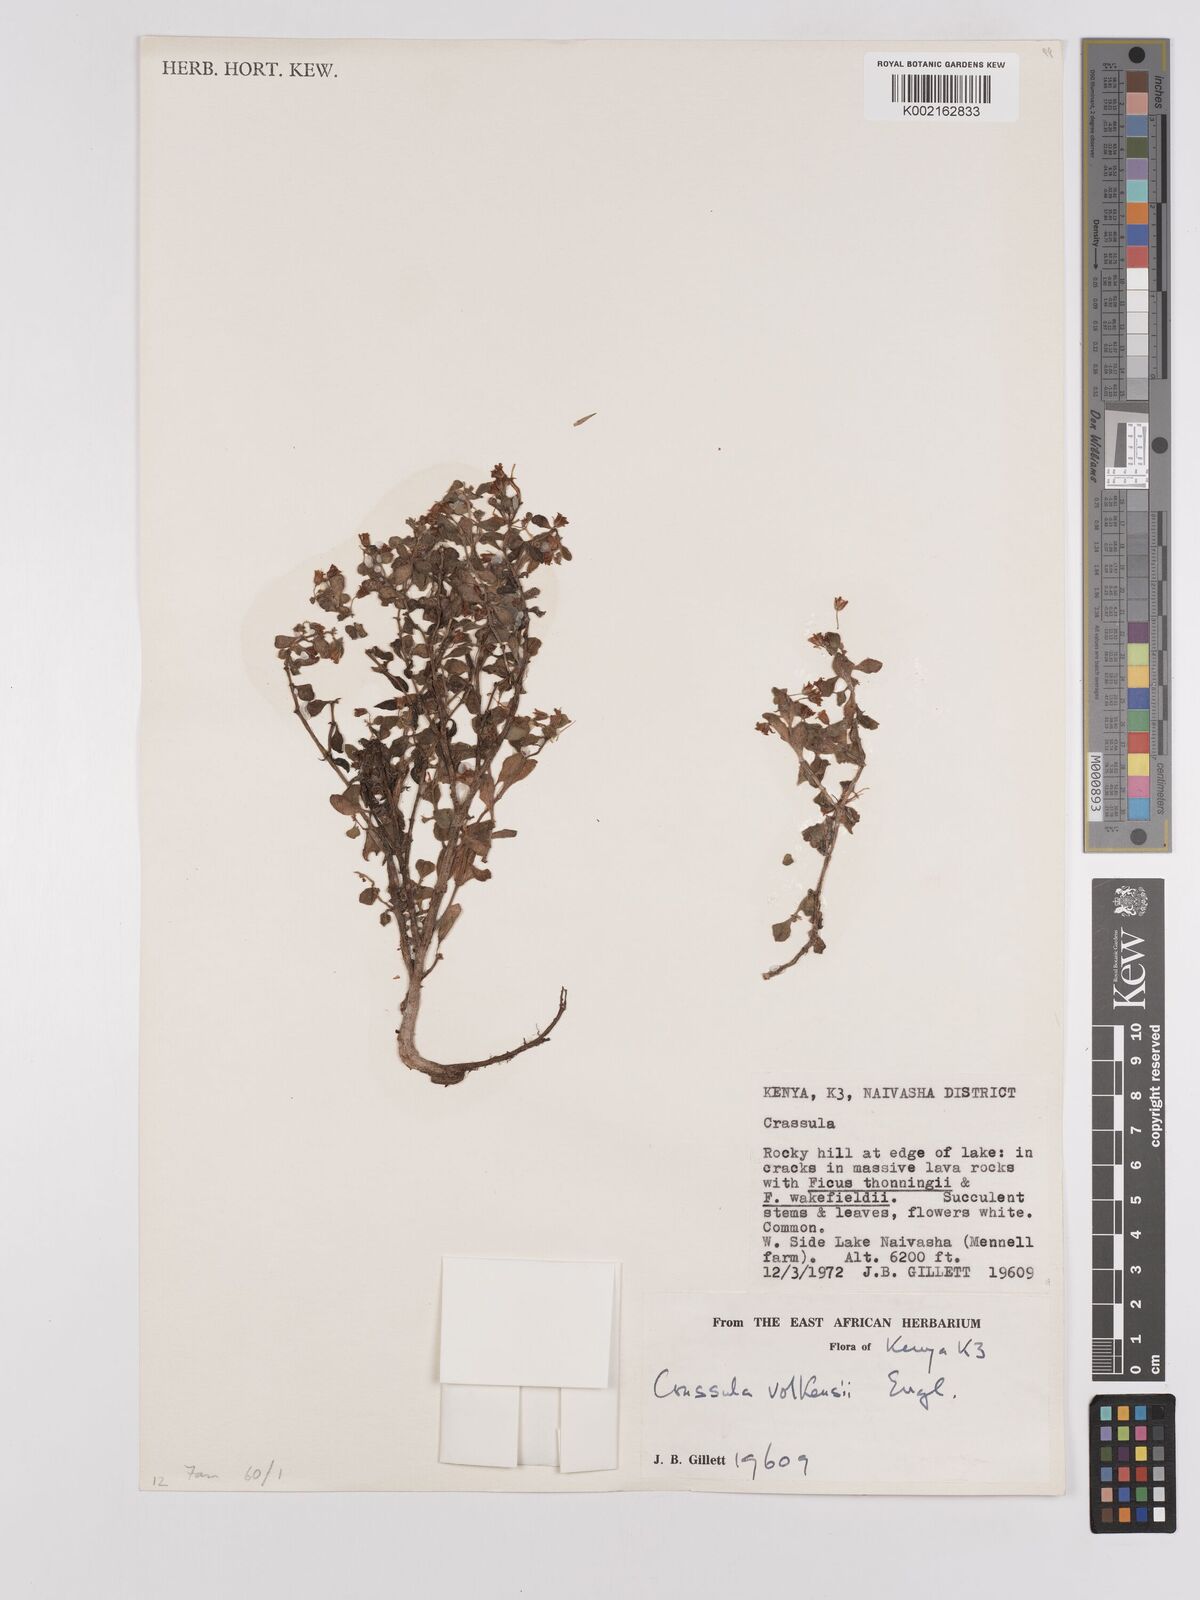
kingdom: Plantae
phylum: Tracheophyta
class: Magnoliopsida
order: Saxifragales
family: Crassulaceae
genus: Crassula
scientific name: Crassula volkensii
